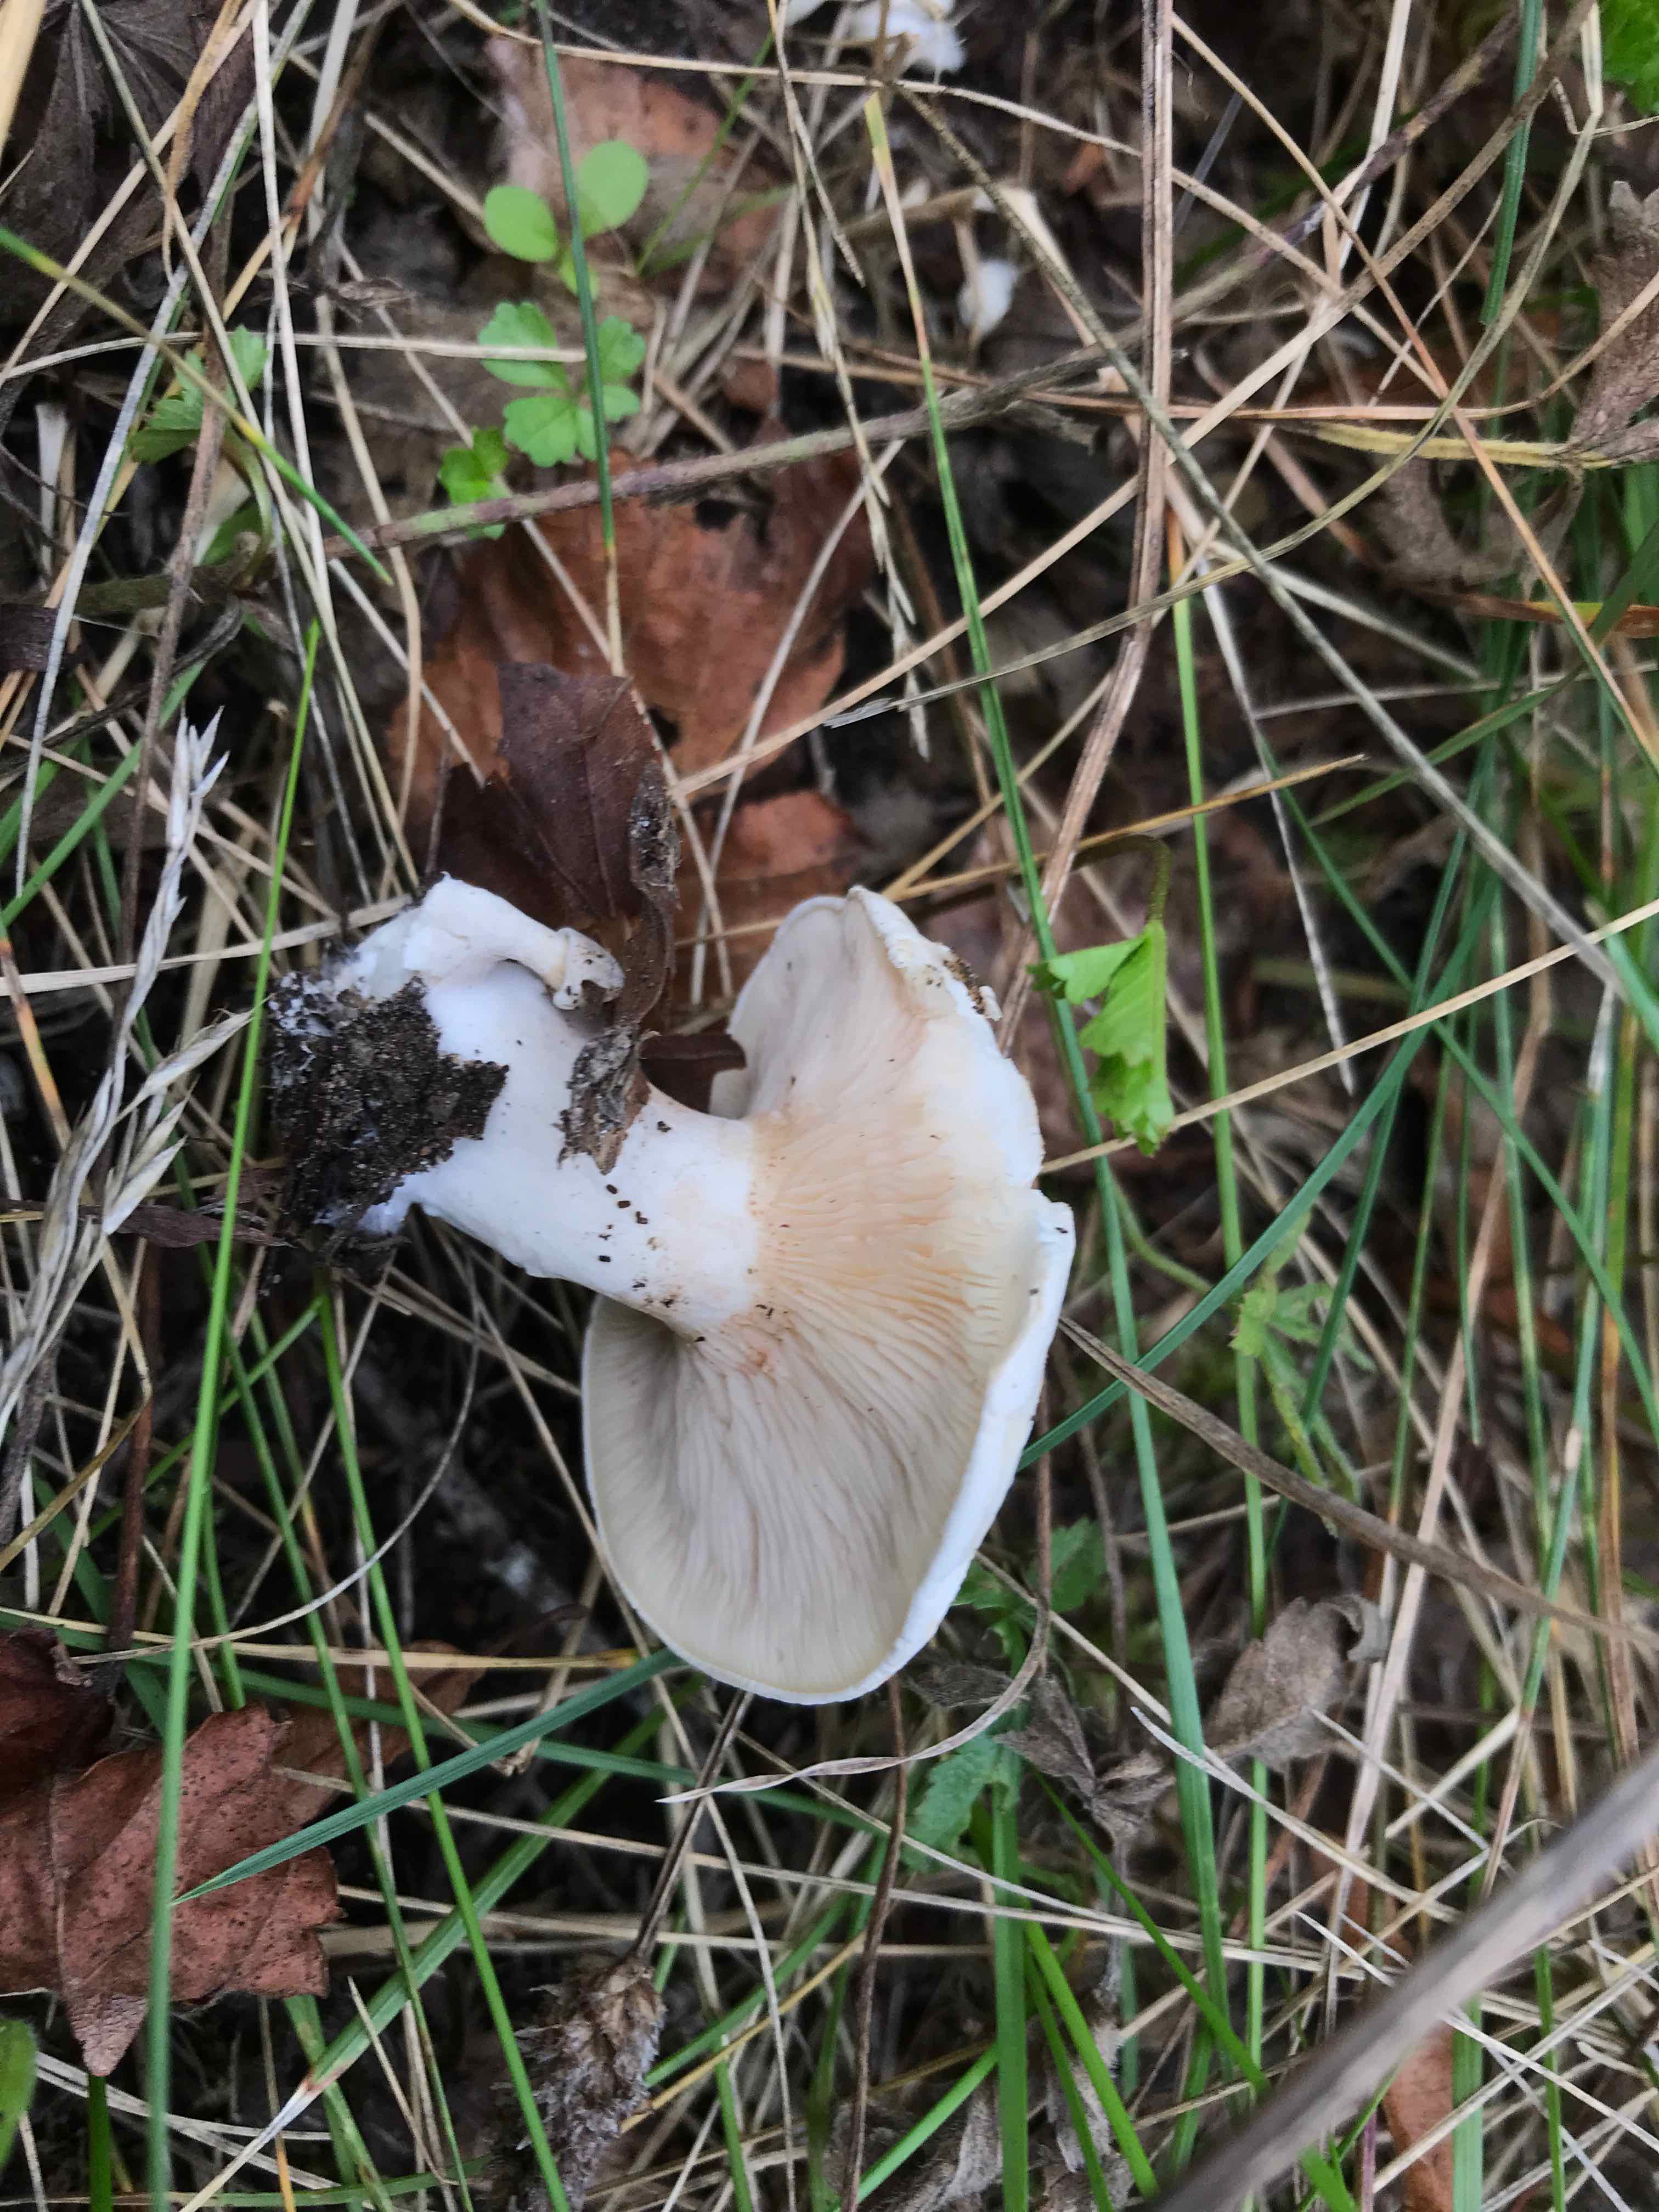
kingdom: Fungi
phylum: Basidiomycota
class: Agaricomycetes
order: Agaricales
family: Entolomataceae
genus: Clitopilus
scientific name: Clitopilus prunulus
